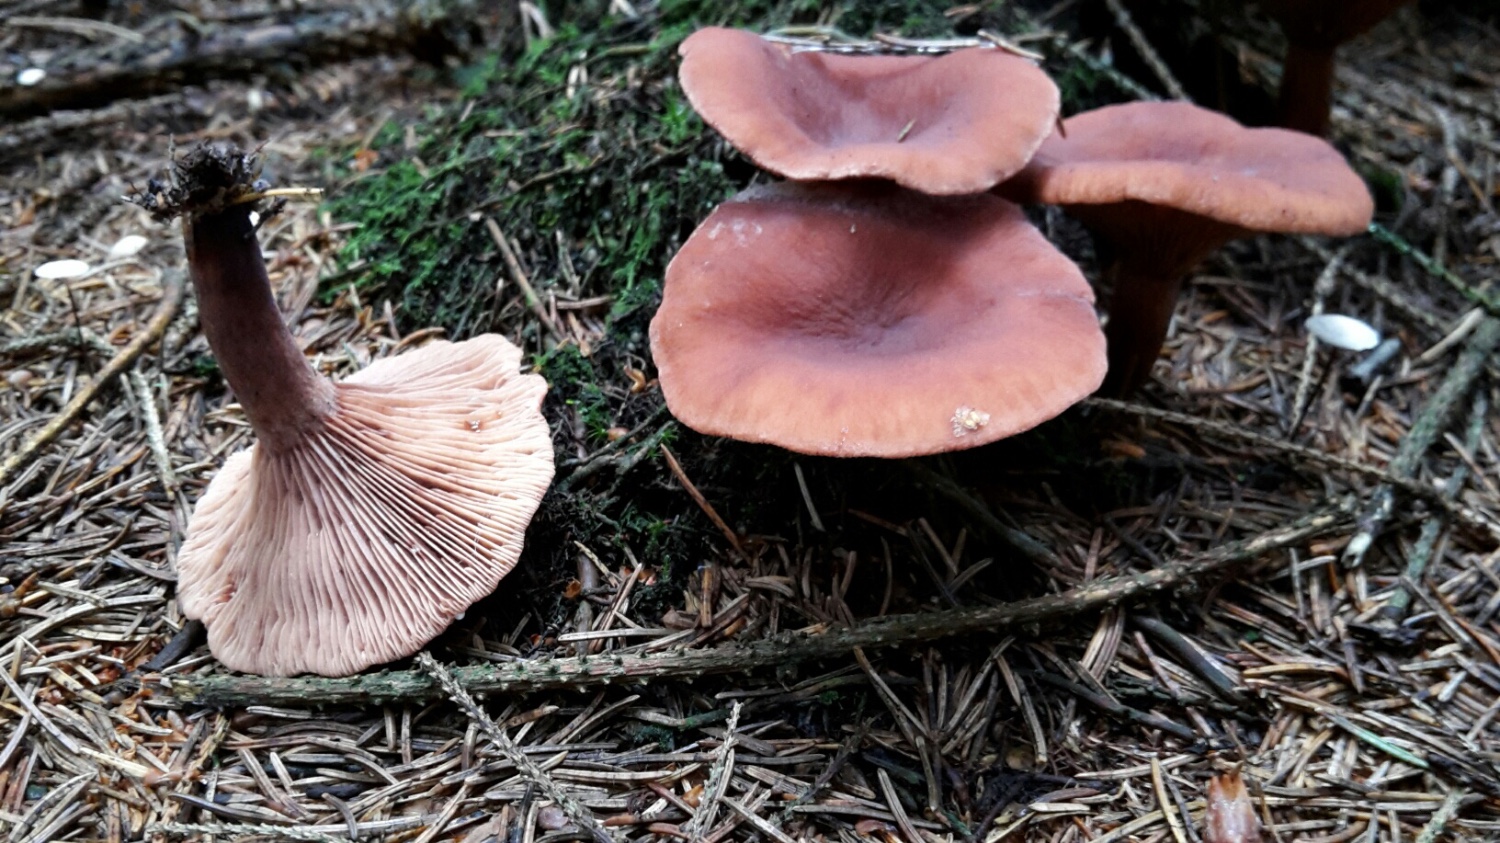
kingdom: Fungi
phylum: Basidiomycota
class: Agaricomycetes
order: Russulales
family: Russulaceae
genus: Lactarius
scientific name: Lactarius camphoratus
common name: kamfer-mælkehat
